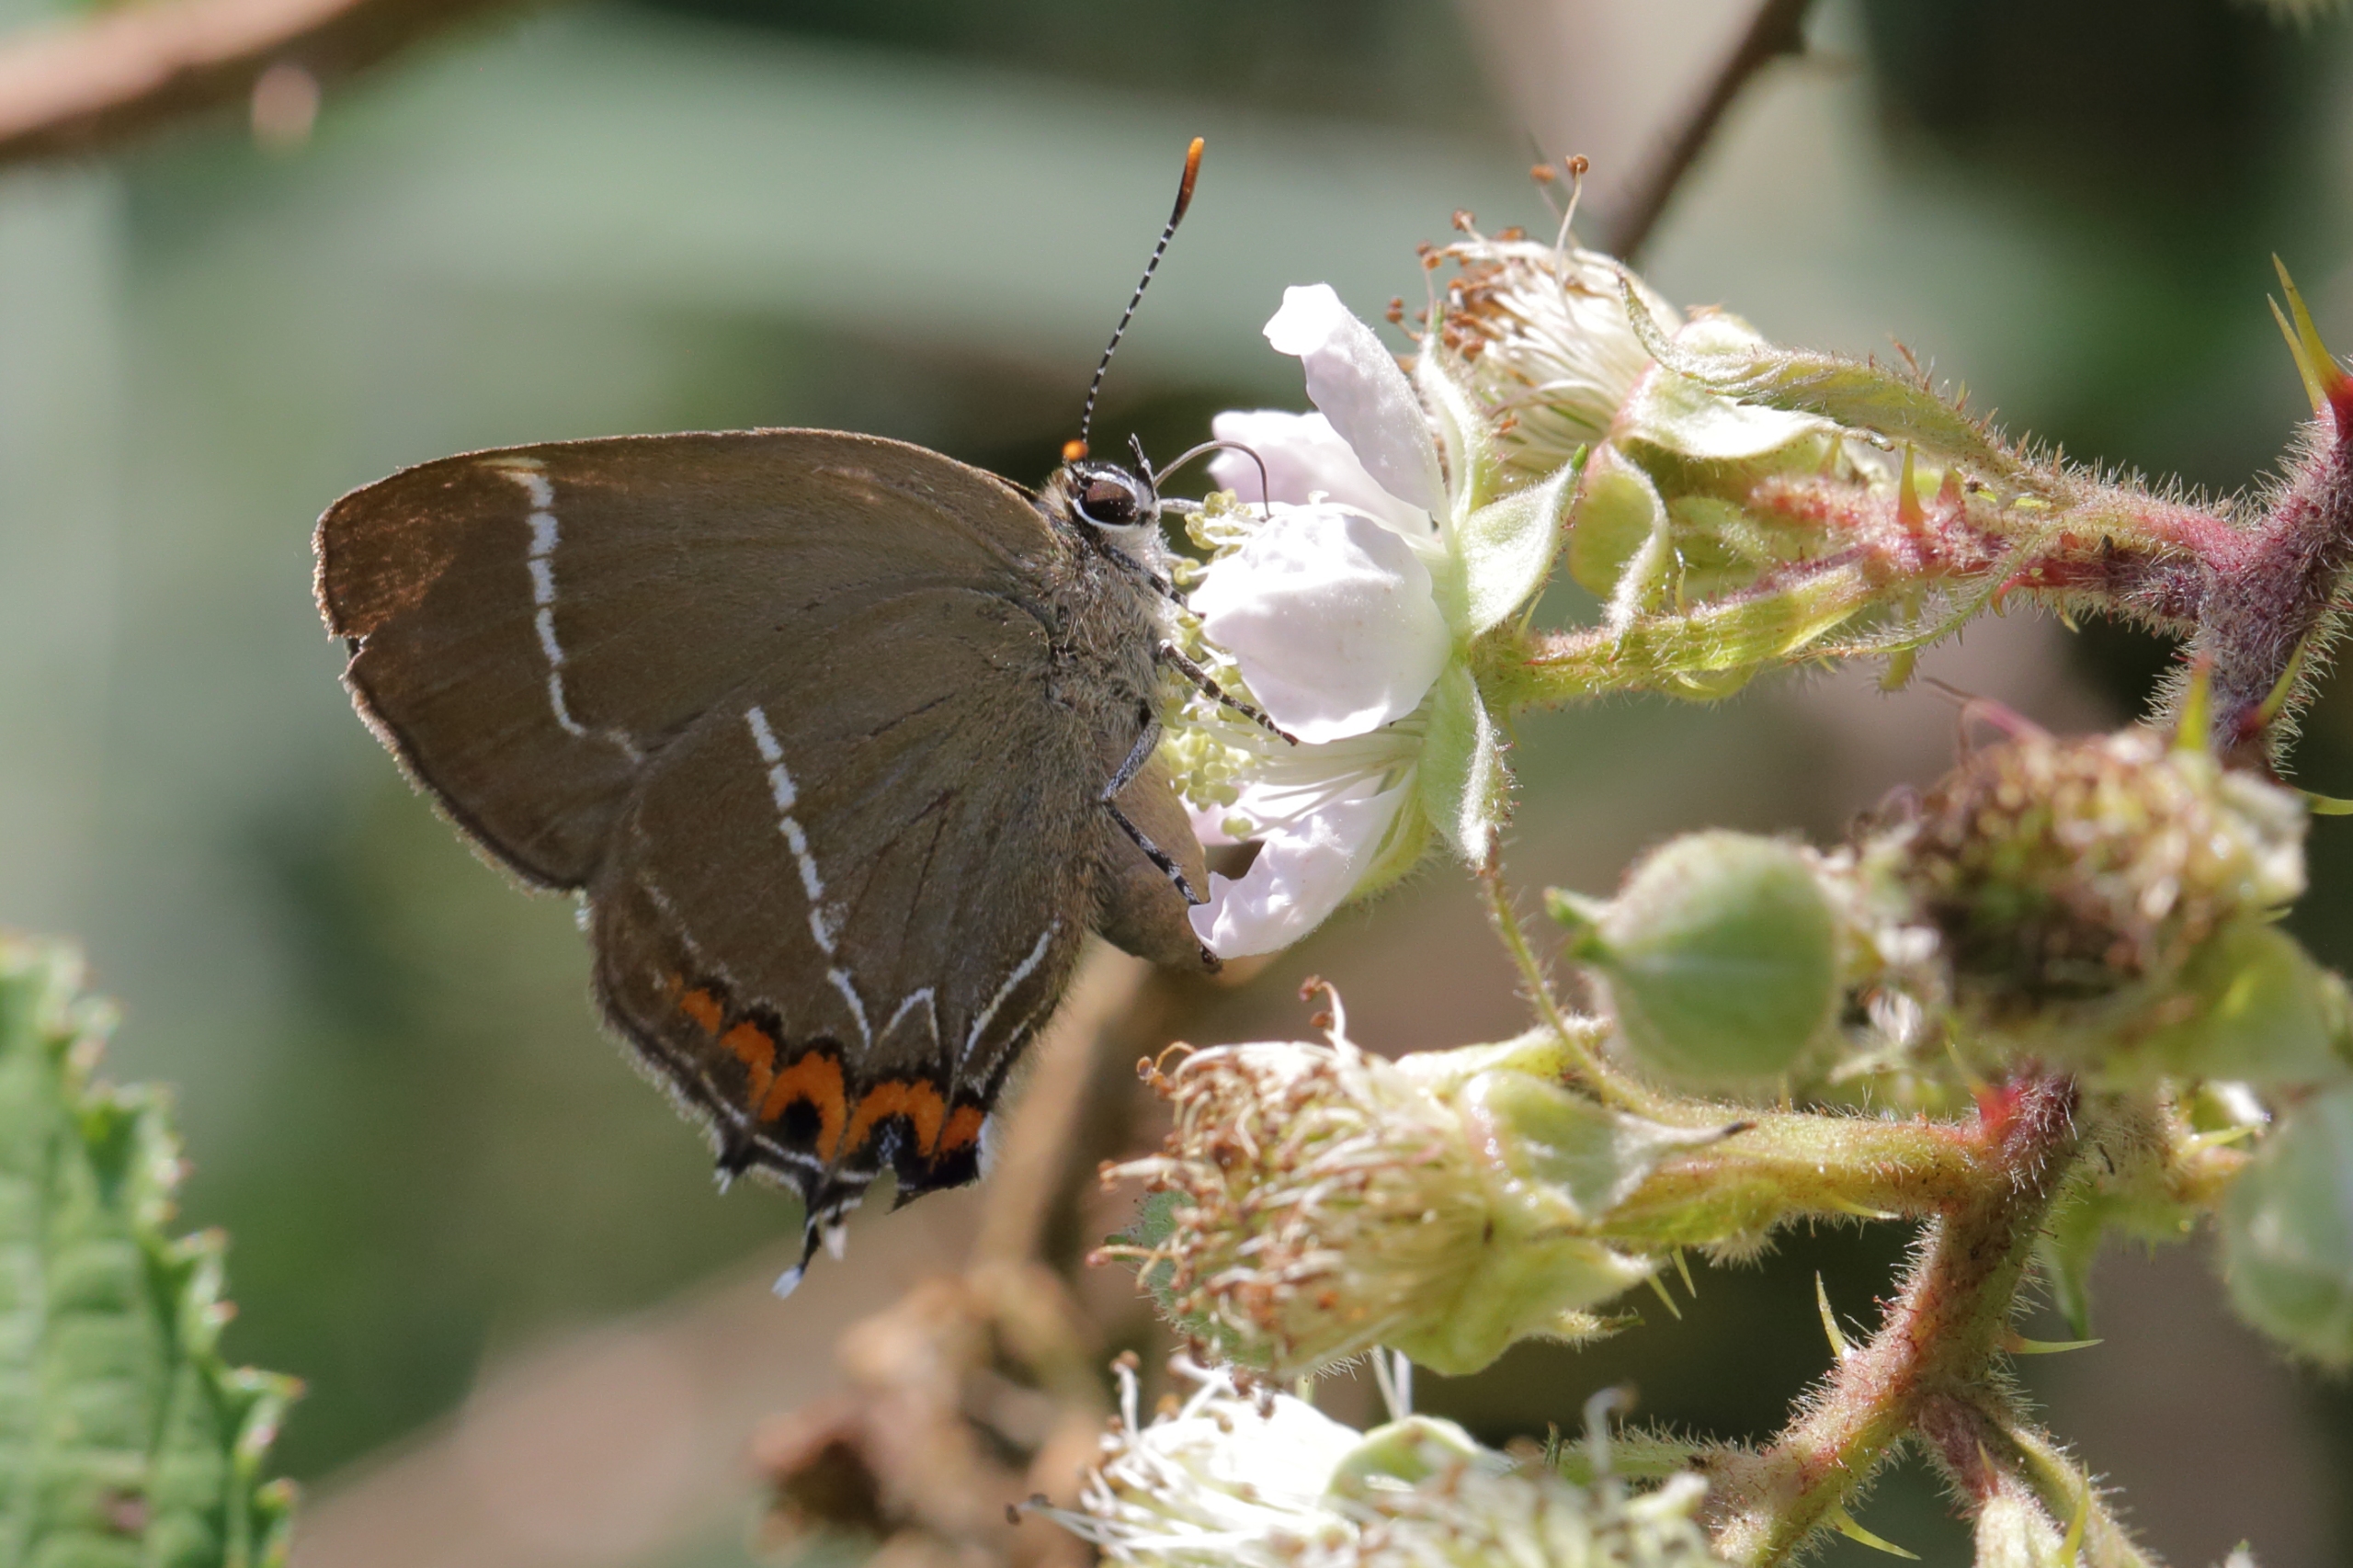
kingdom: Animalia
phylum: Arthropoda
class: Insecta
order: Lepidoptera
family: Lycaenidae
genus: Satyrium
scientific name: Satyrium w-album
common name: Det hvide W
